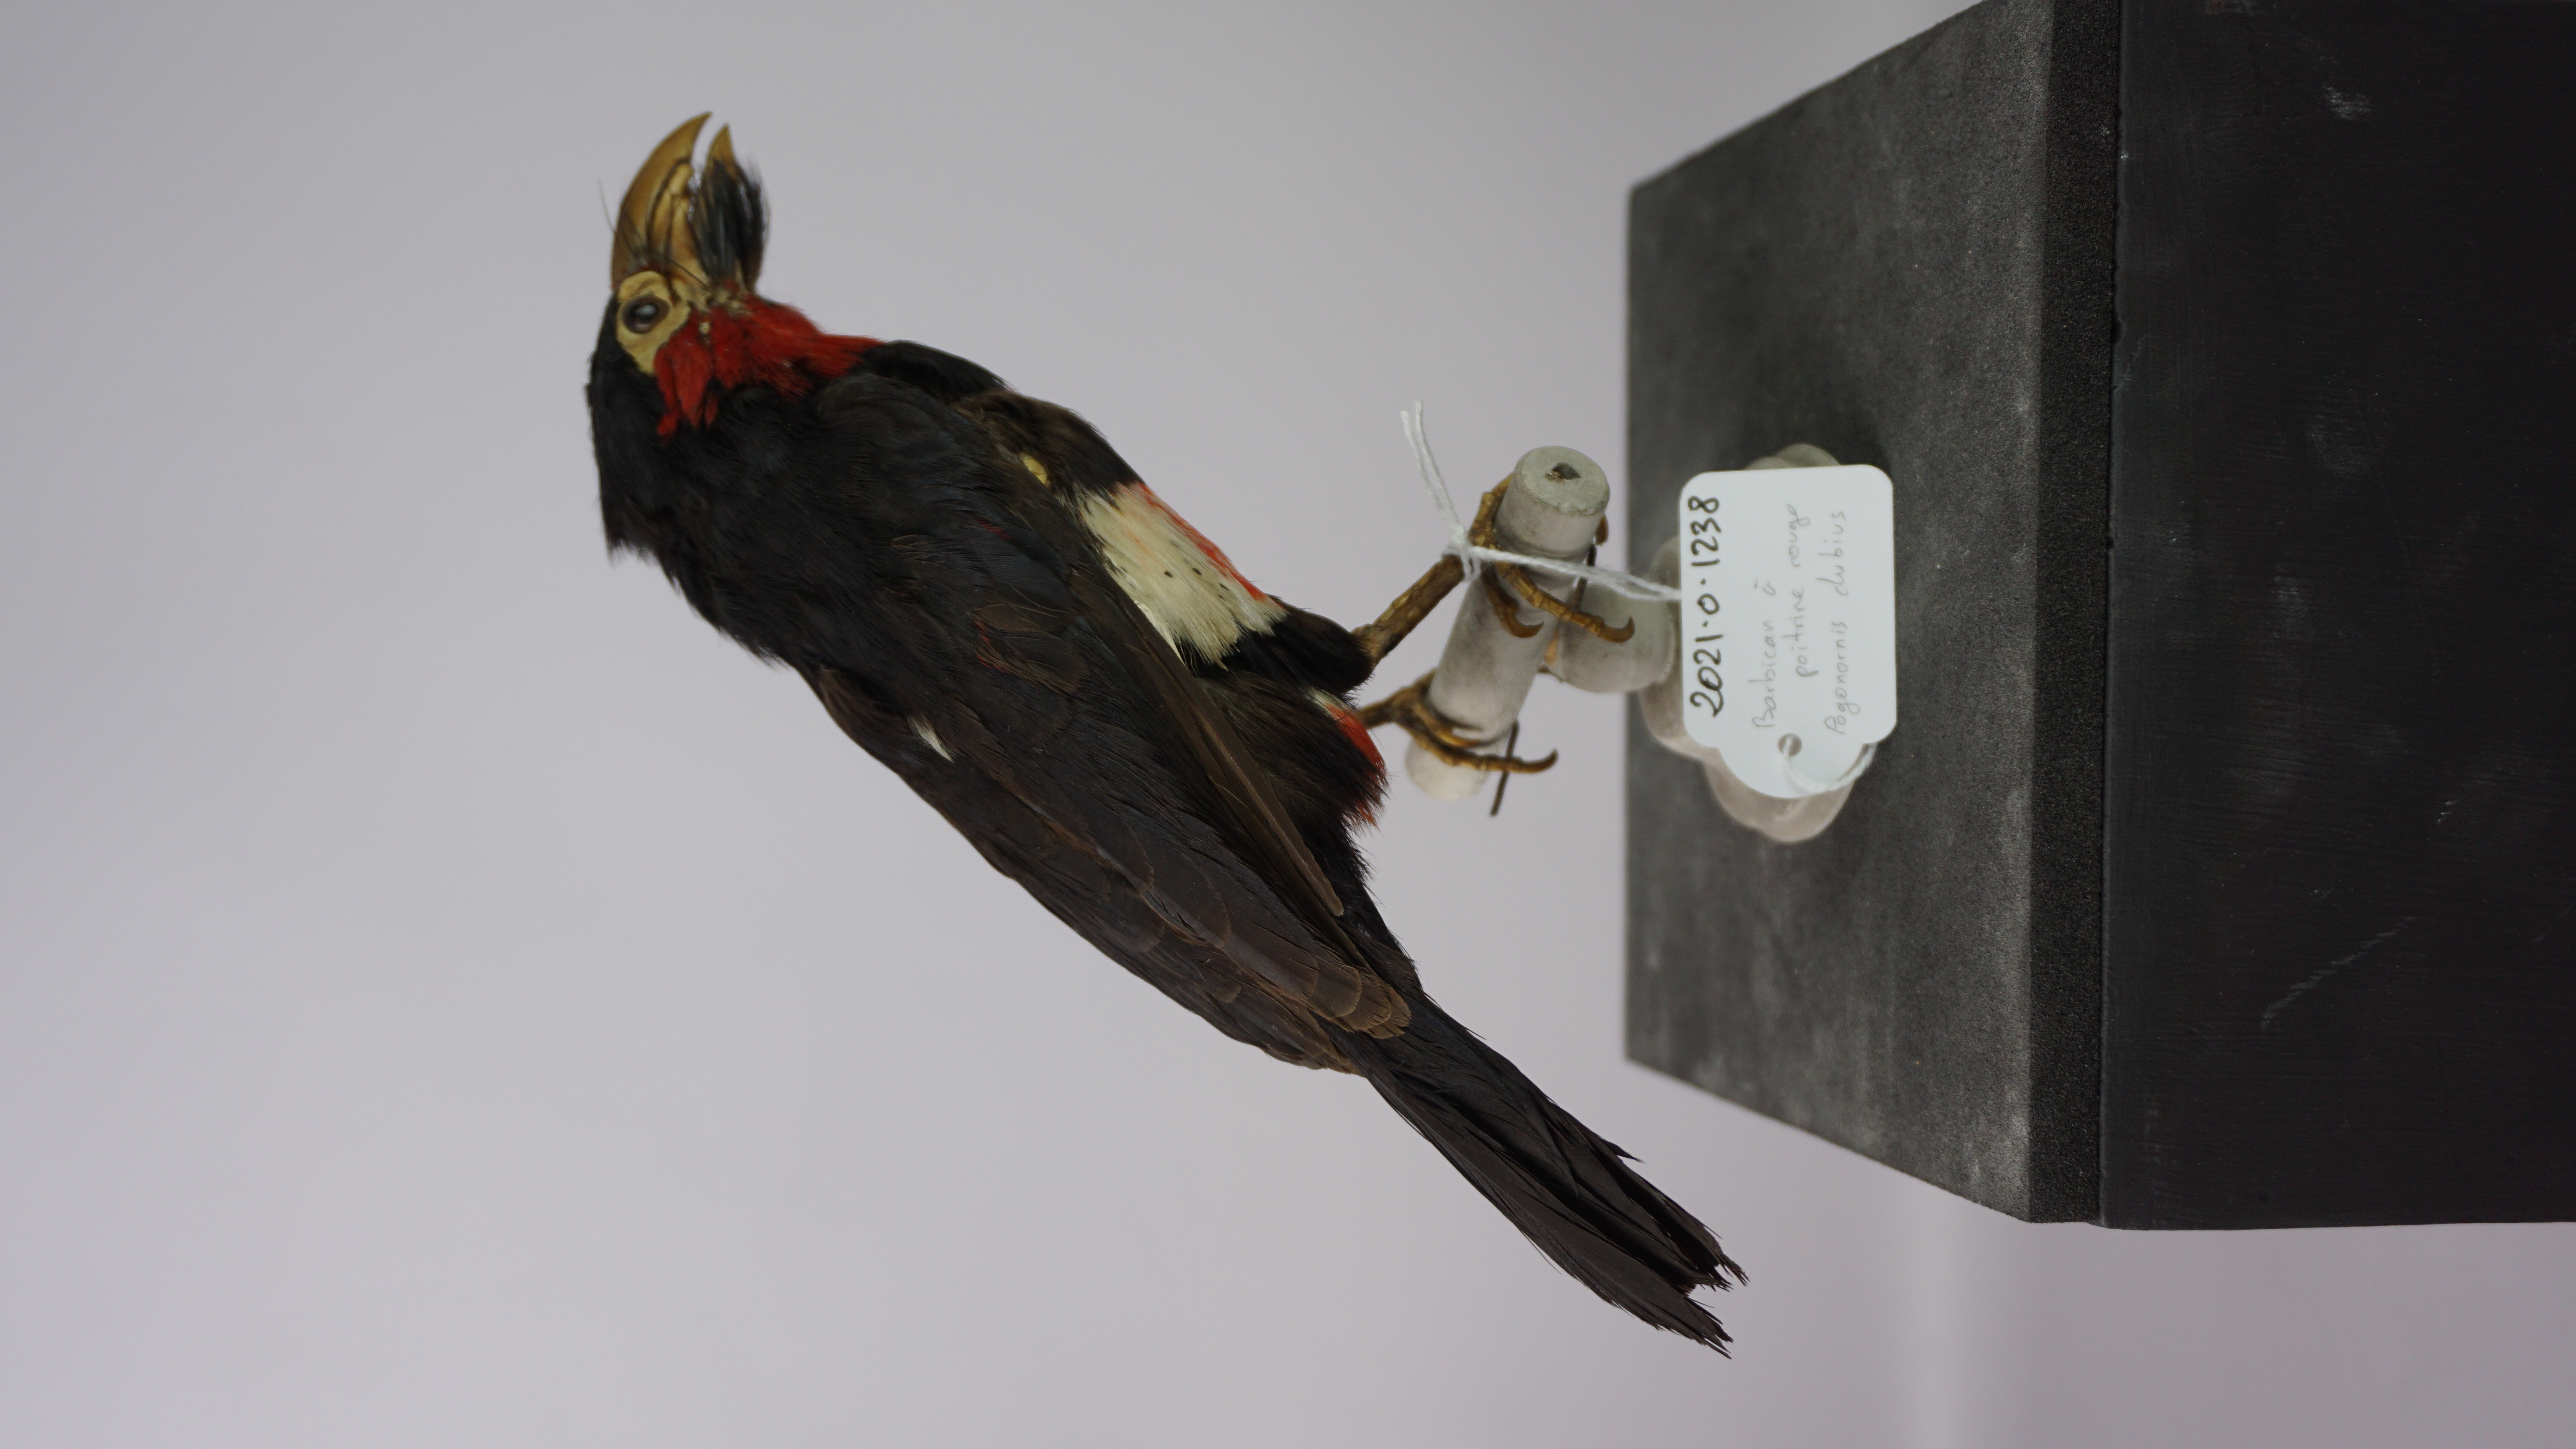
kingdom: Animalia
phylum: Chordata
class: Aves
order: Piciformes
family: Lybiidae
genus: Lybius
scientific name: Lybius vieilloti
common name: Vieillot's barbet
